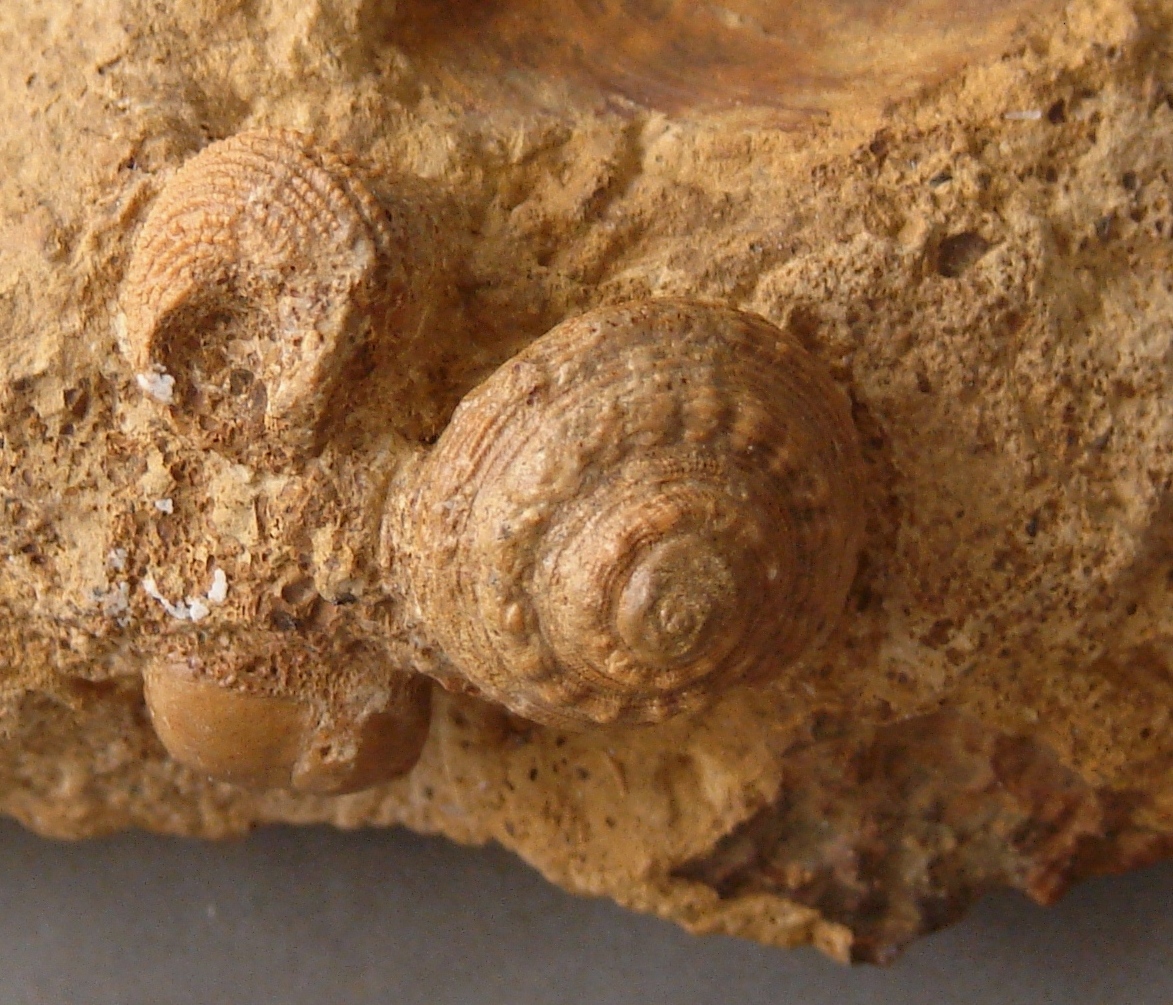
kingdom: Animalia
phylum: Mollusca
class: Gastropoda
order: Pleurotomariida
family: Pleurotomariidae
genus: Obornella
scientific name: Obornella Pleurotomaria lentiformis
